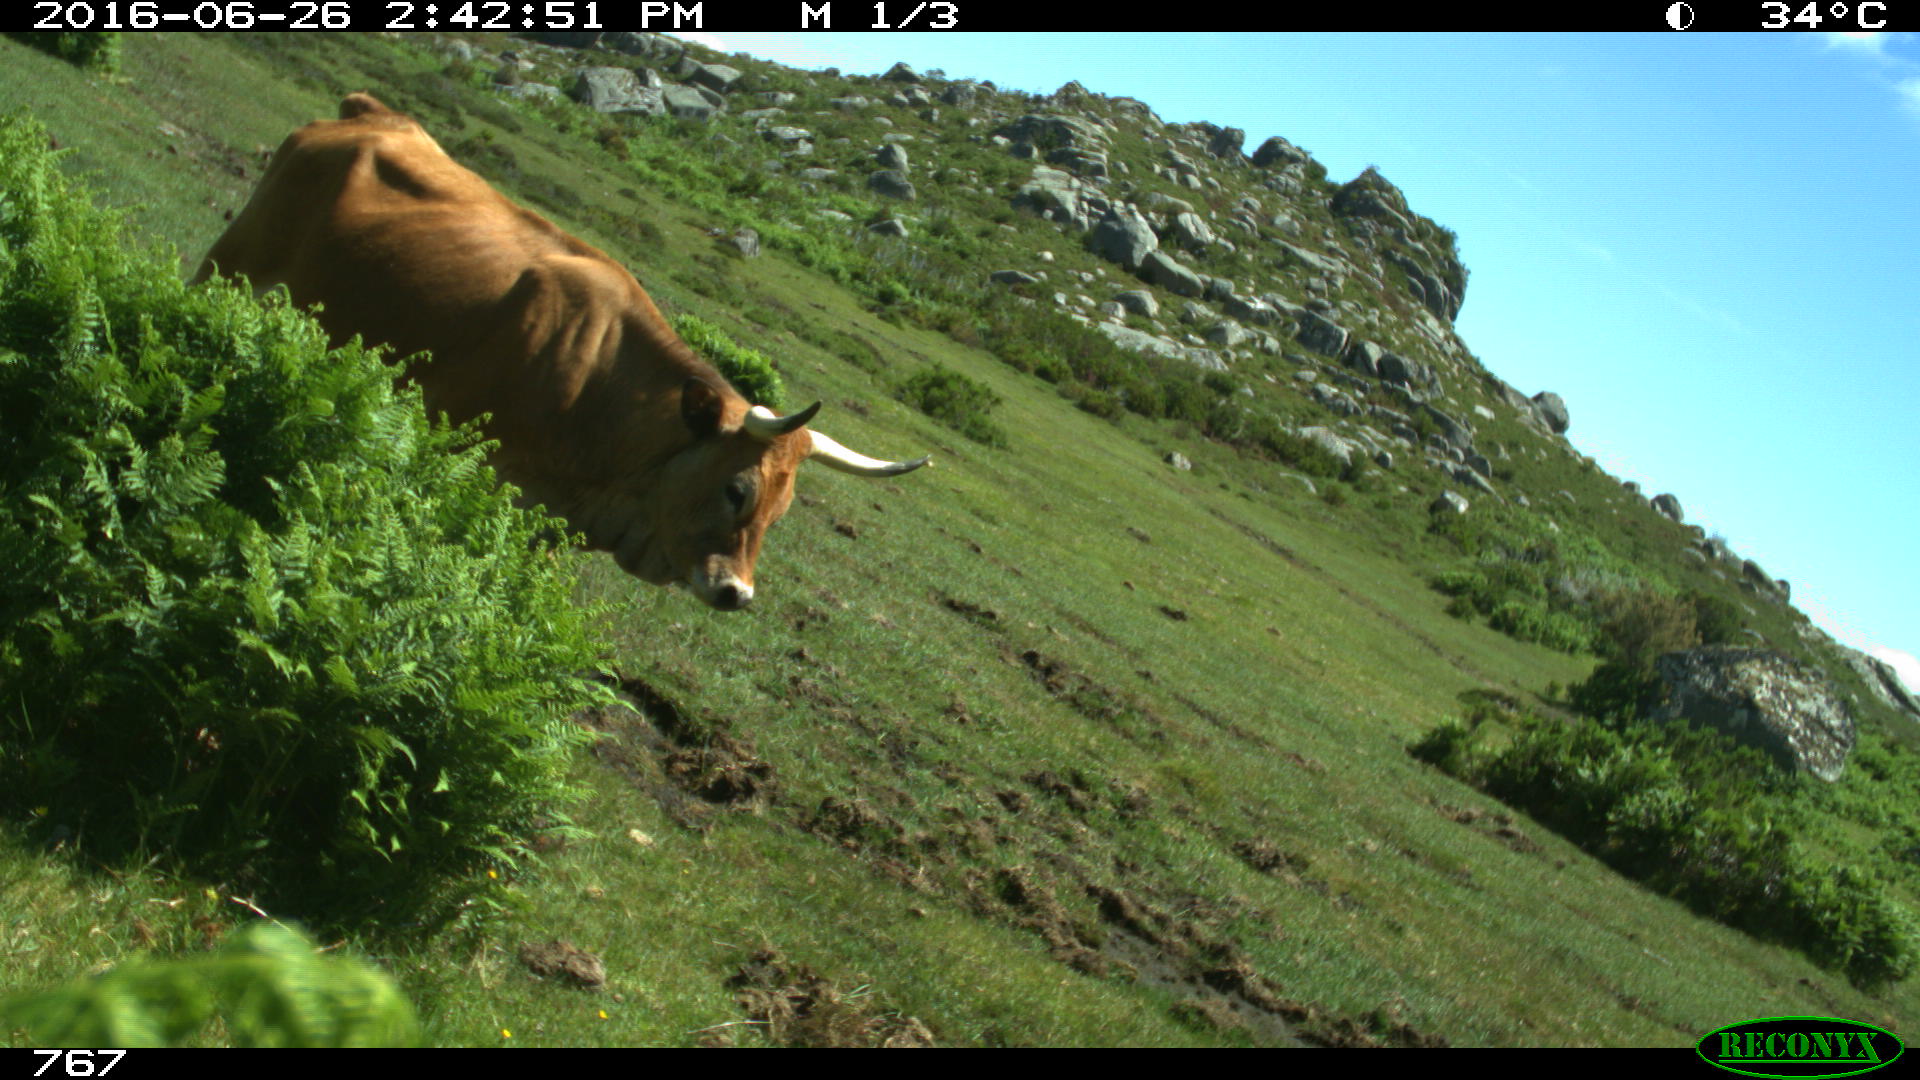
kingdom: Animalia
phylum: Chordata
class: Mammalia
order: Artiodactyla
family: Bovidae
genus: Bos
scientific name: Bos taurus
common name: Domesticated cattle
